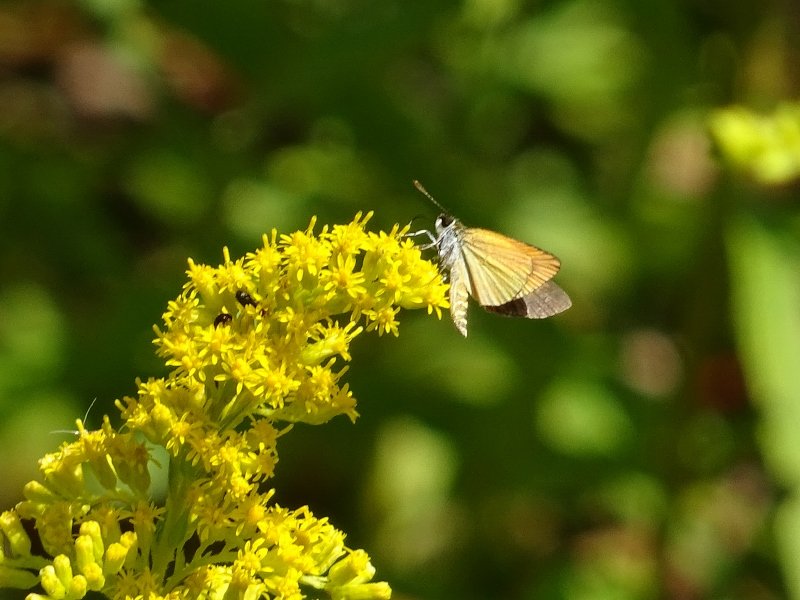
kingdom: Animalia
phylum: Arthropoda
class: Insecta
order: Lepidoptera
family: Hesperiidae
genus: Ancyloxypha
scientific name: Ancyloxypha numitor
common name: Least Skipper
